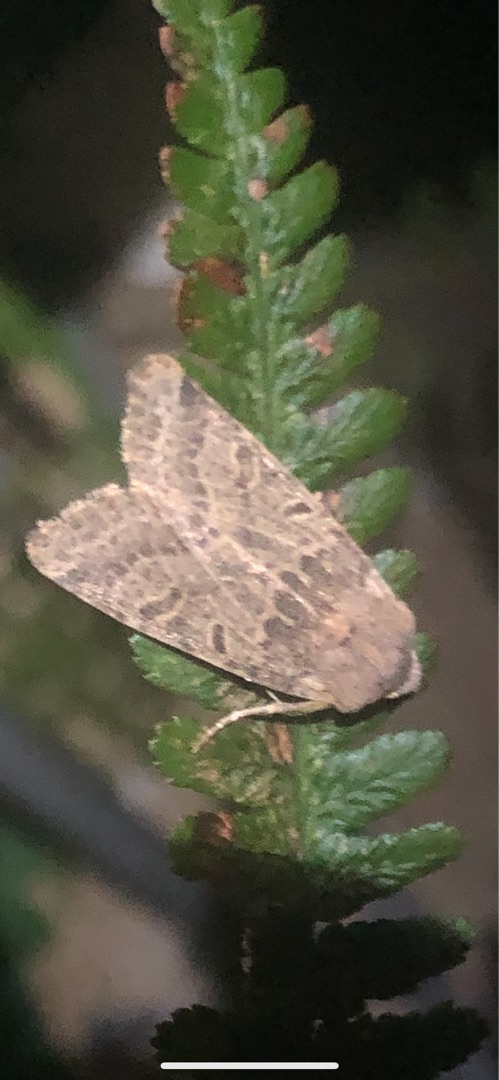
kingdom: Animalia
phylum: Arthropoda
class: Insecta
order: Lepidoptera
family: Noctuidae
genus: Agrochola
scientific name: Agrochola lychnidis
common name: Foranderlig jordfarveugle
